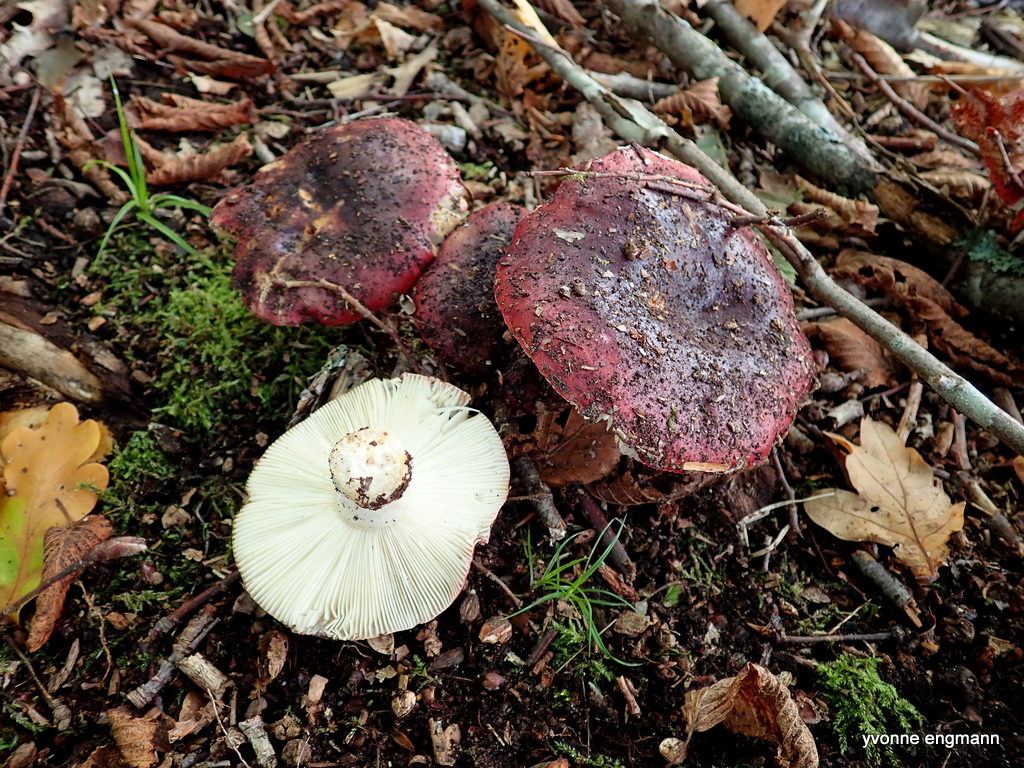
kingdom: Fungi
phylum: Basidiomycota
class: Agaricomycetes
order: Russulales
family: Russulaceae
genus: Russula
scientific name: Russula
